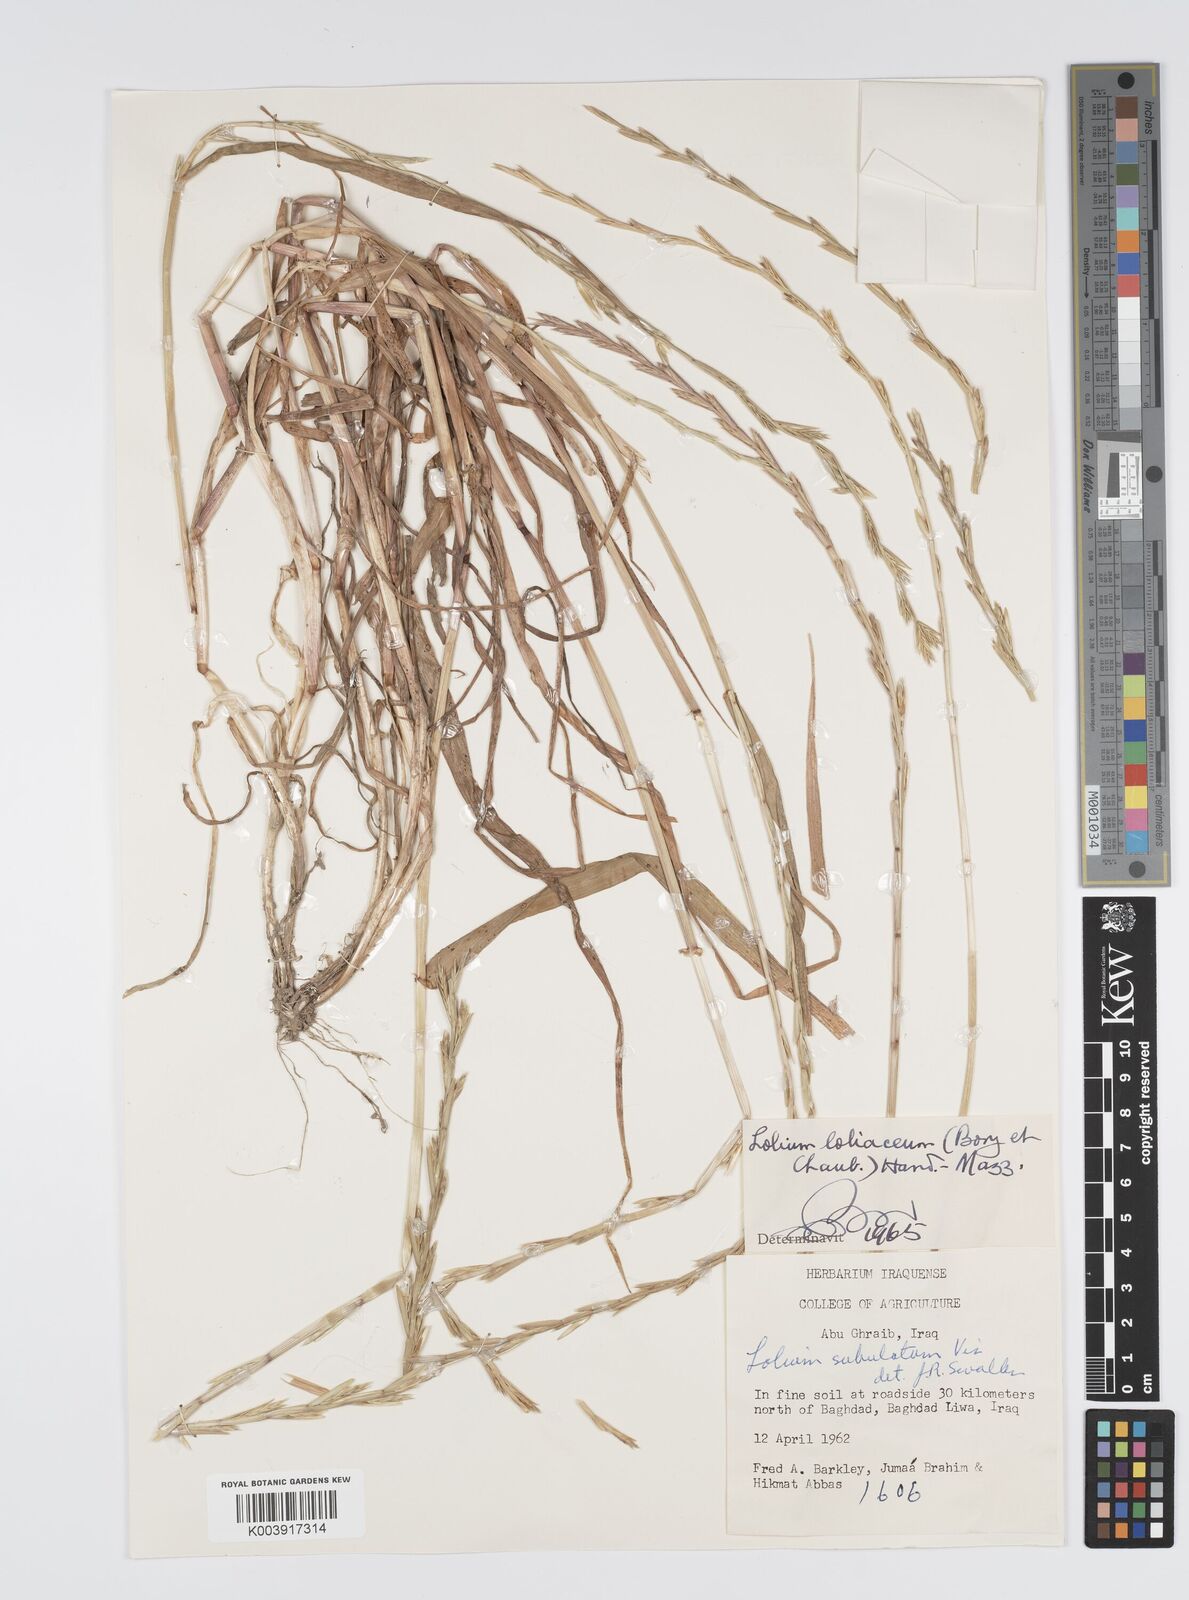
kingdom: Plantae
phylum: Tracheophyta
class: Liliopsida
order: Poales
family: Poaceae
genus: Lolium
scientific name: Lolium rigidum
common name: Wimmera ryegrass
